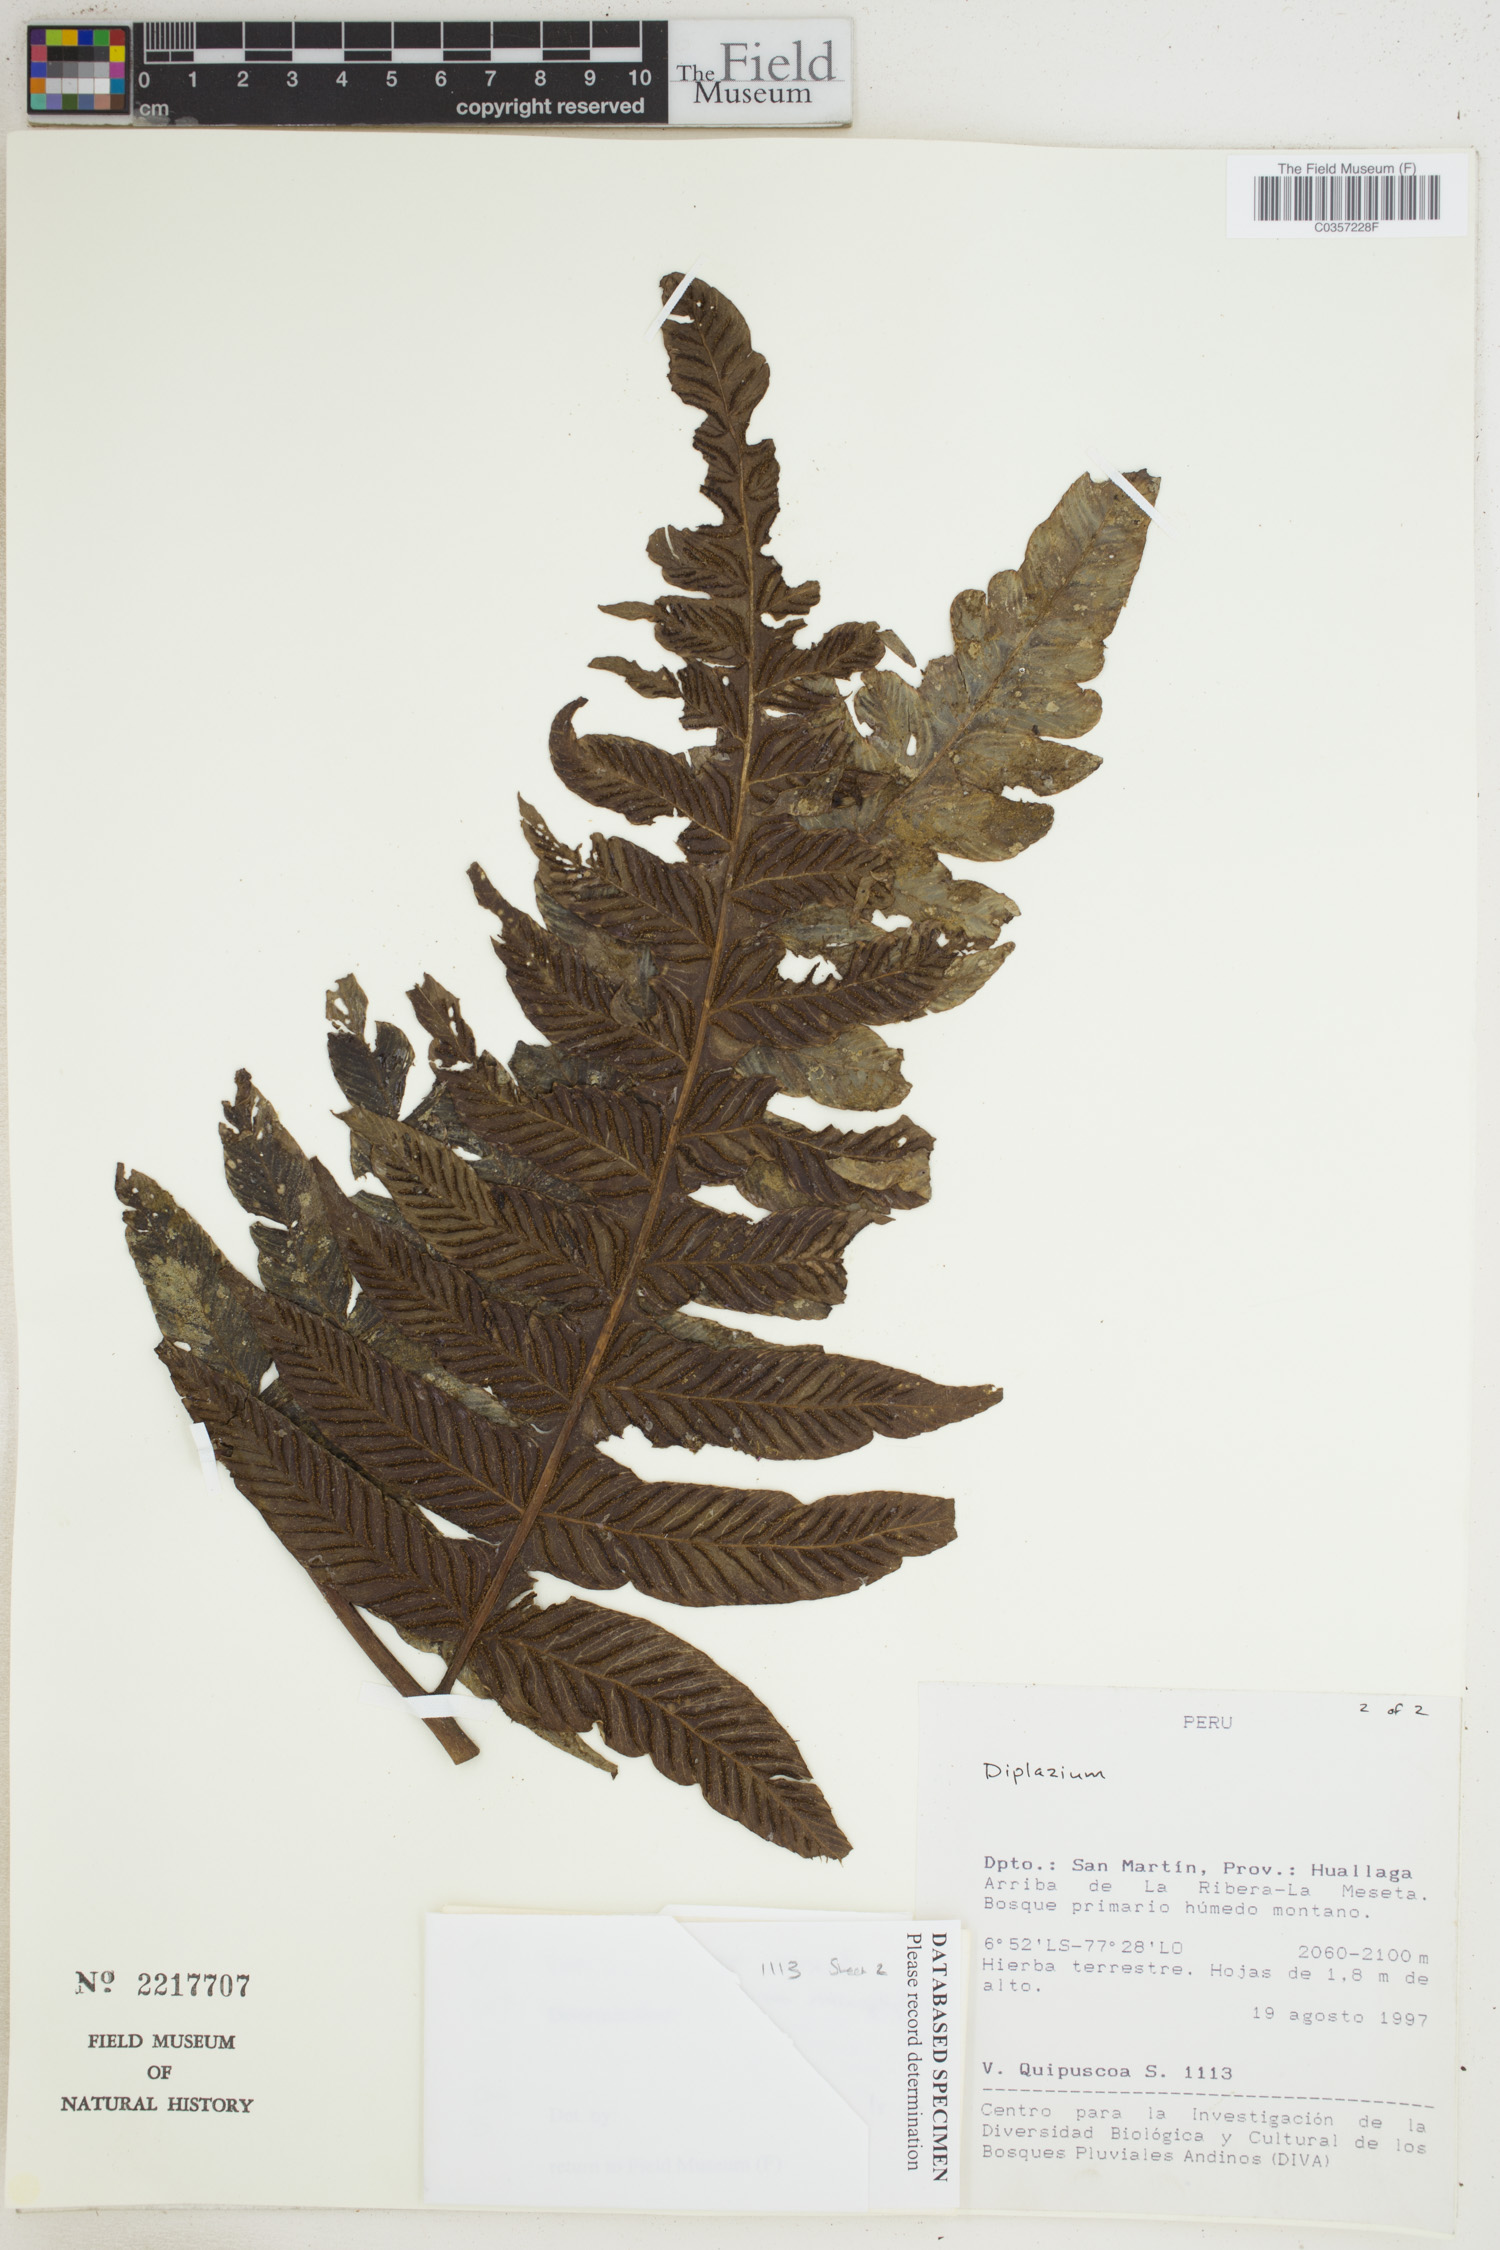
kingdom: Plantae
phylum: Tracheophyta
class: Polypodiopsida
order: Polypodiales
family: Athyriaceae
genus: Diplazium
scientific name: Diplazium
